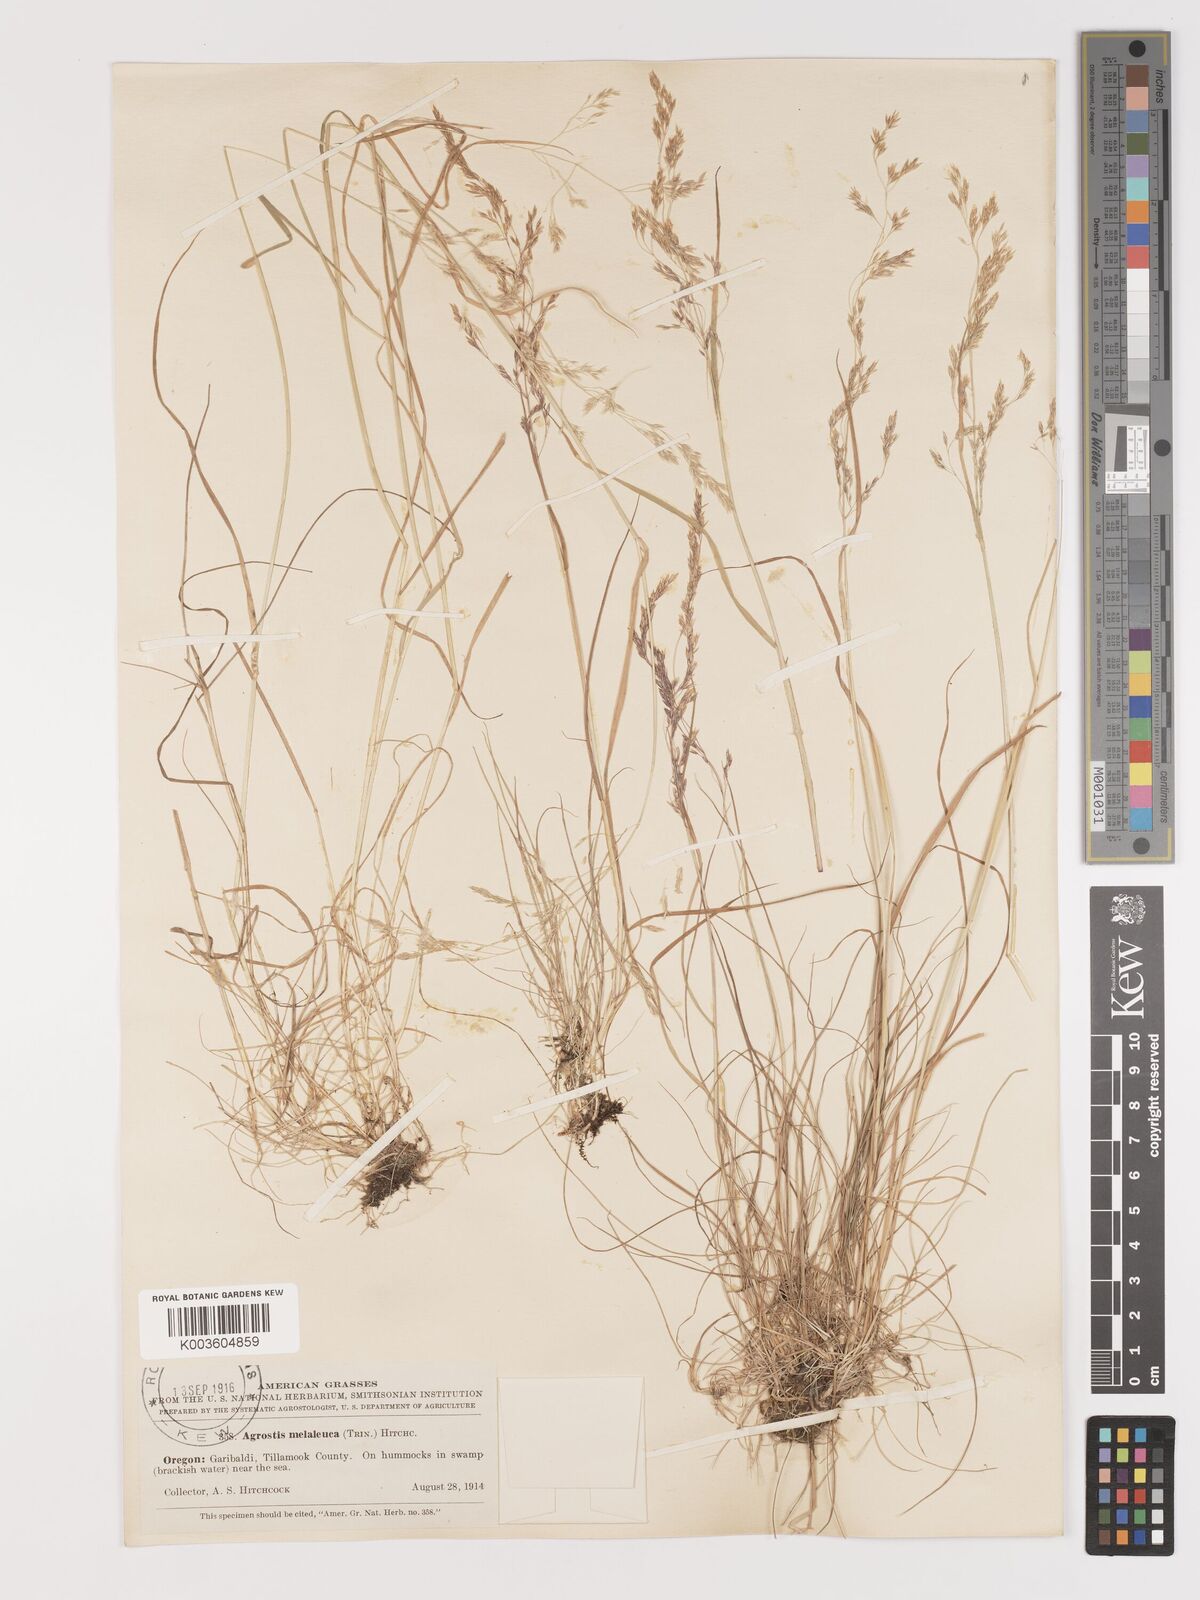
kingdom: Plantae
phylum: Tracheophyta
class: Liliopsida
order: Poales
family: Poaceae
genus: Agrostis
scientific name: Agrostis
